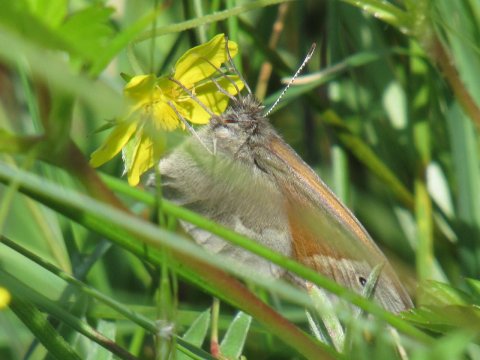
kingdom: Animalia
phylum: Arthropoda
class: Insecta
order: Lepidoptera
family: Nymphalidae
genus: Coenonympha
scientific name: Coenonympha tullia
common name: Large Heath
